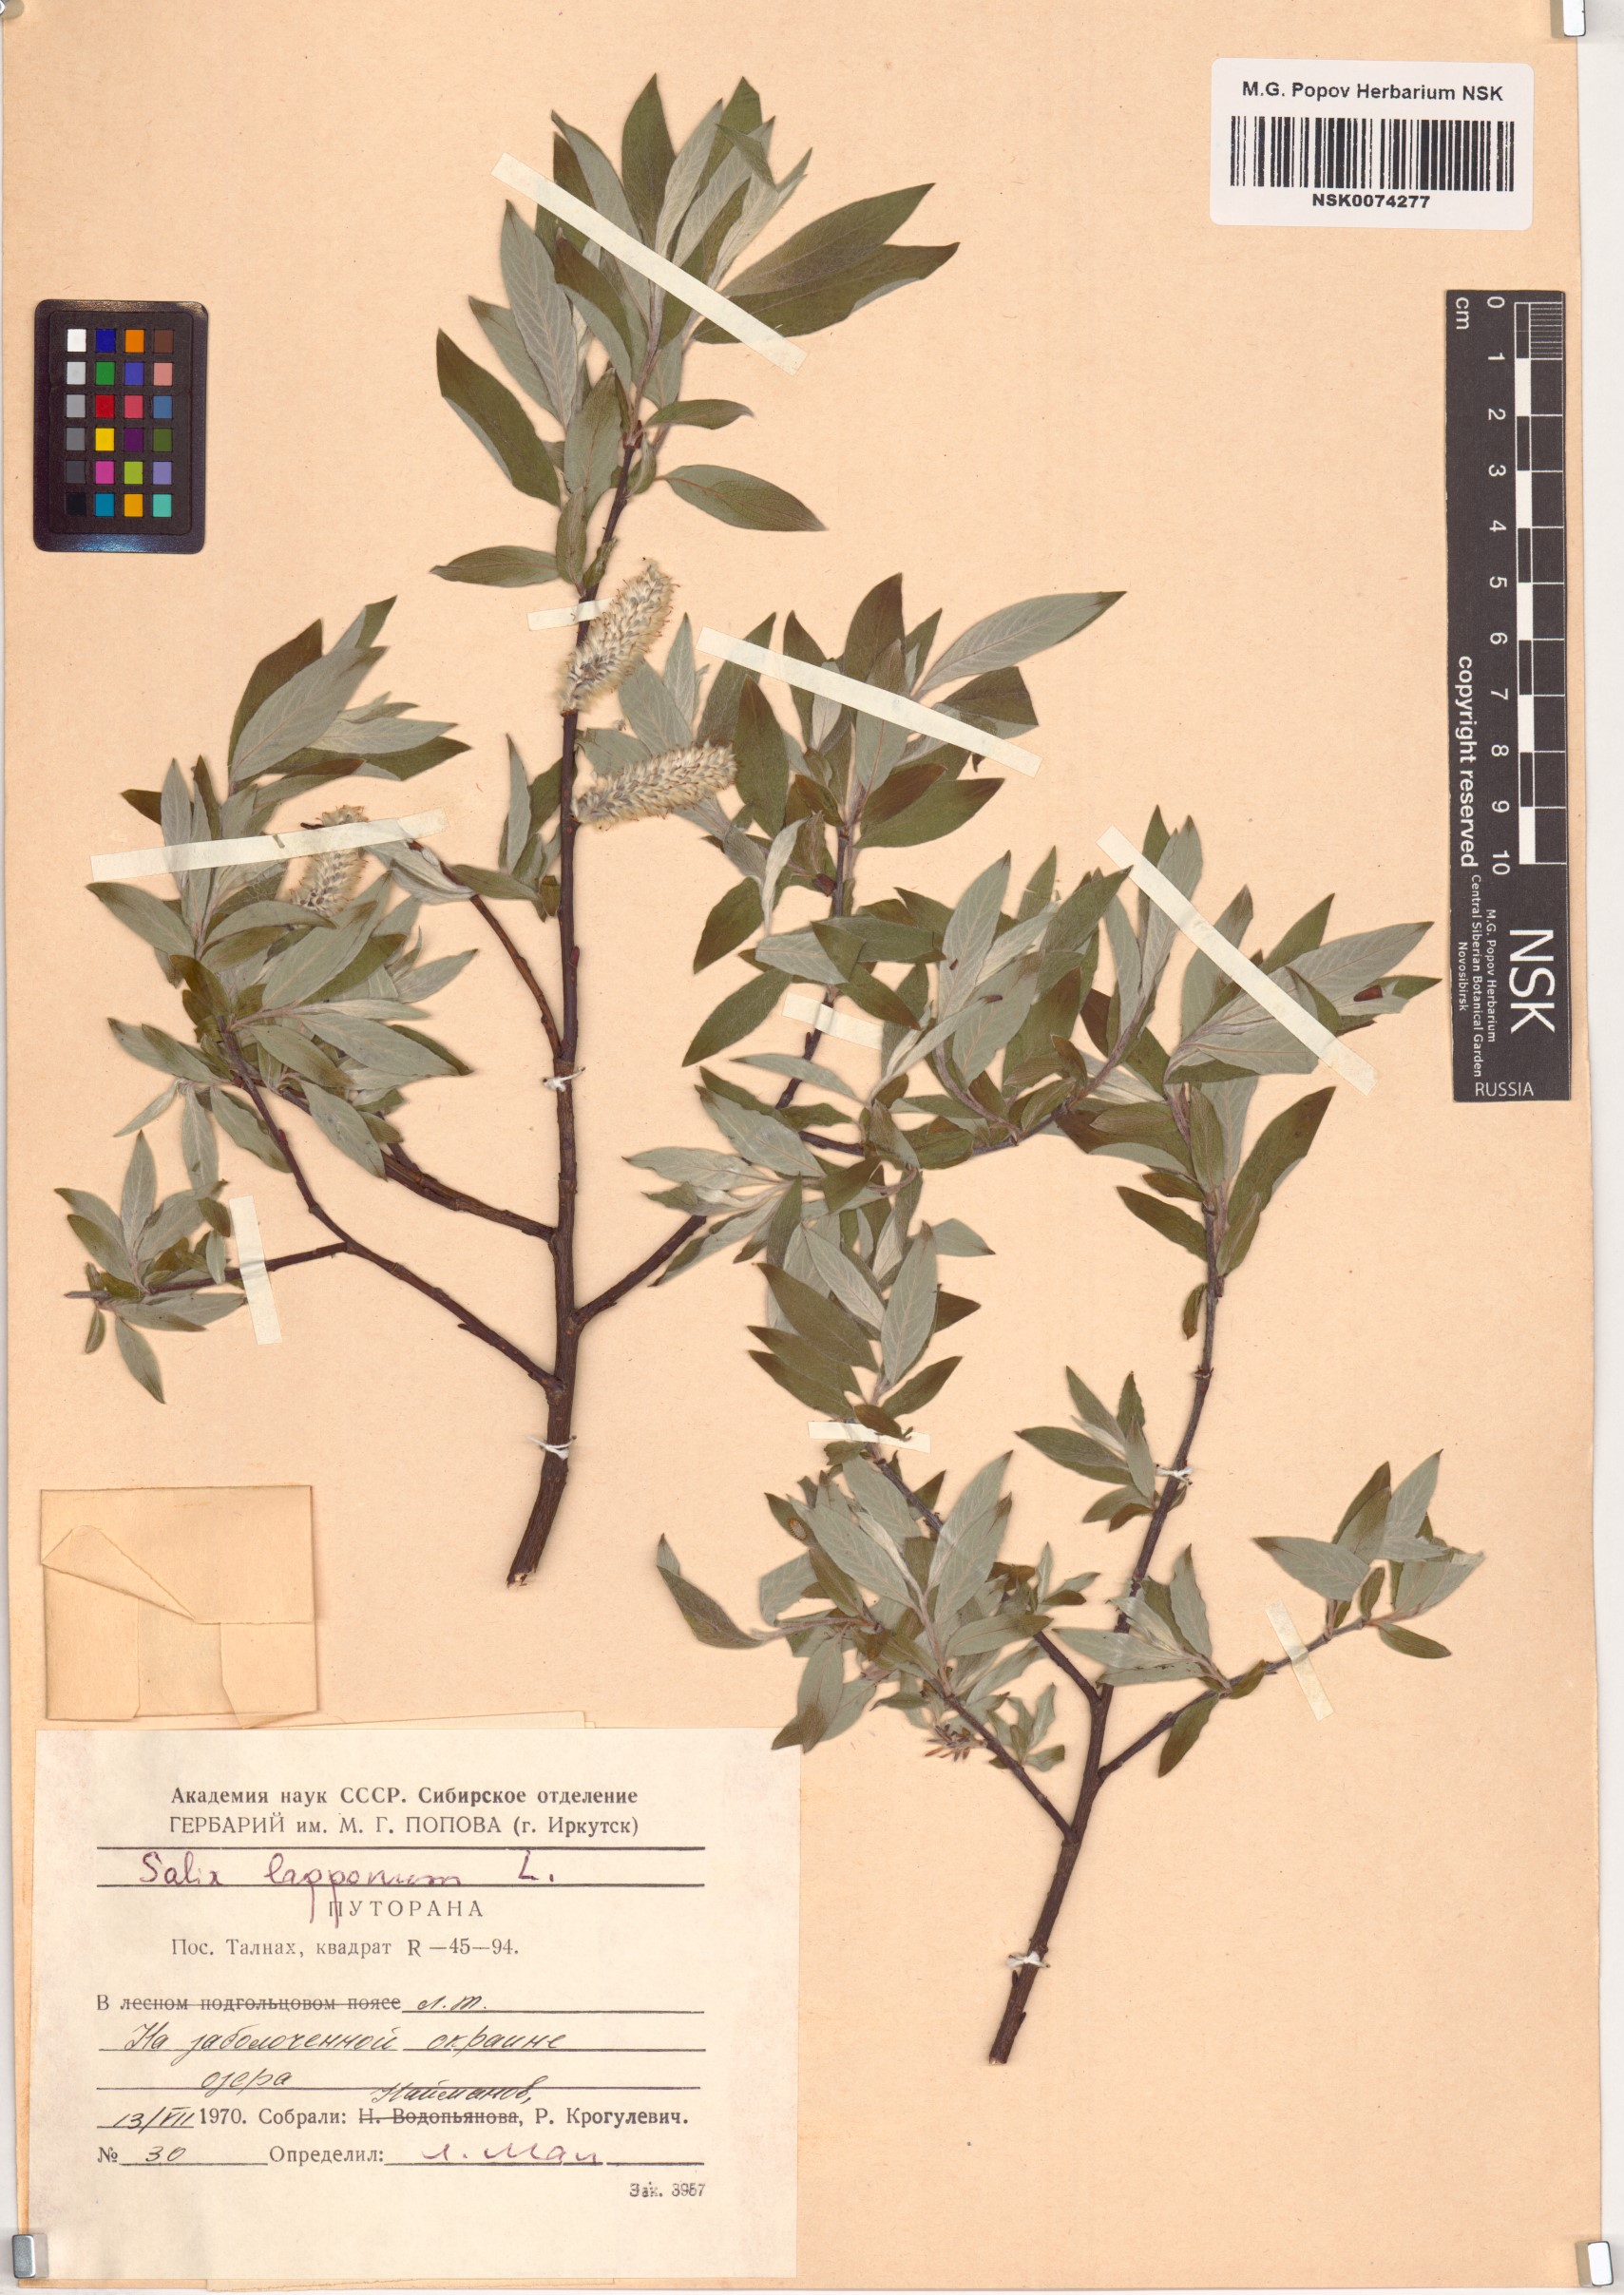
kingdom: Plantae
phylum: Tracheophyta
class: Magnoliopsida
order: Malpighiales
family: Salicaceae
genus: Salix
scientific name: Salix lapponum
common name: Downy willow
